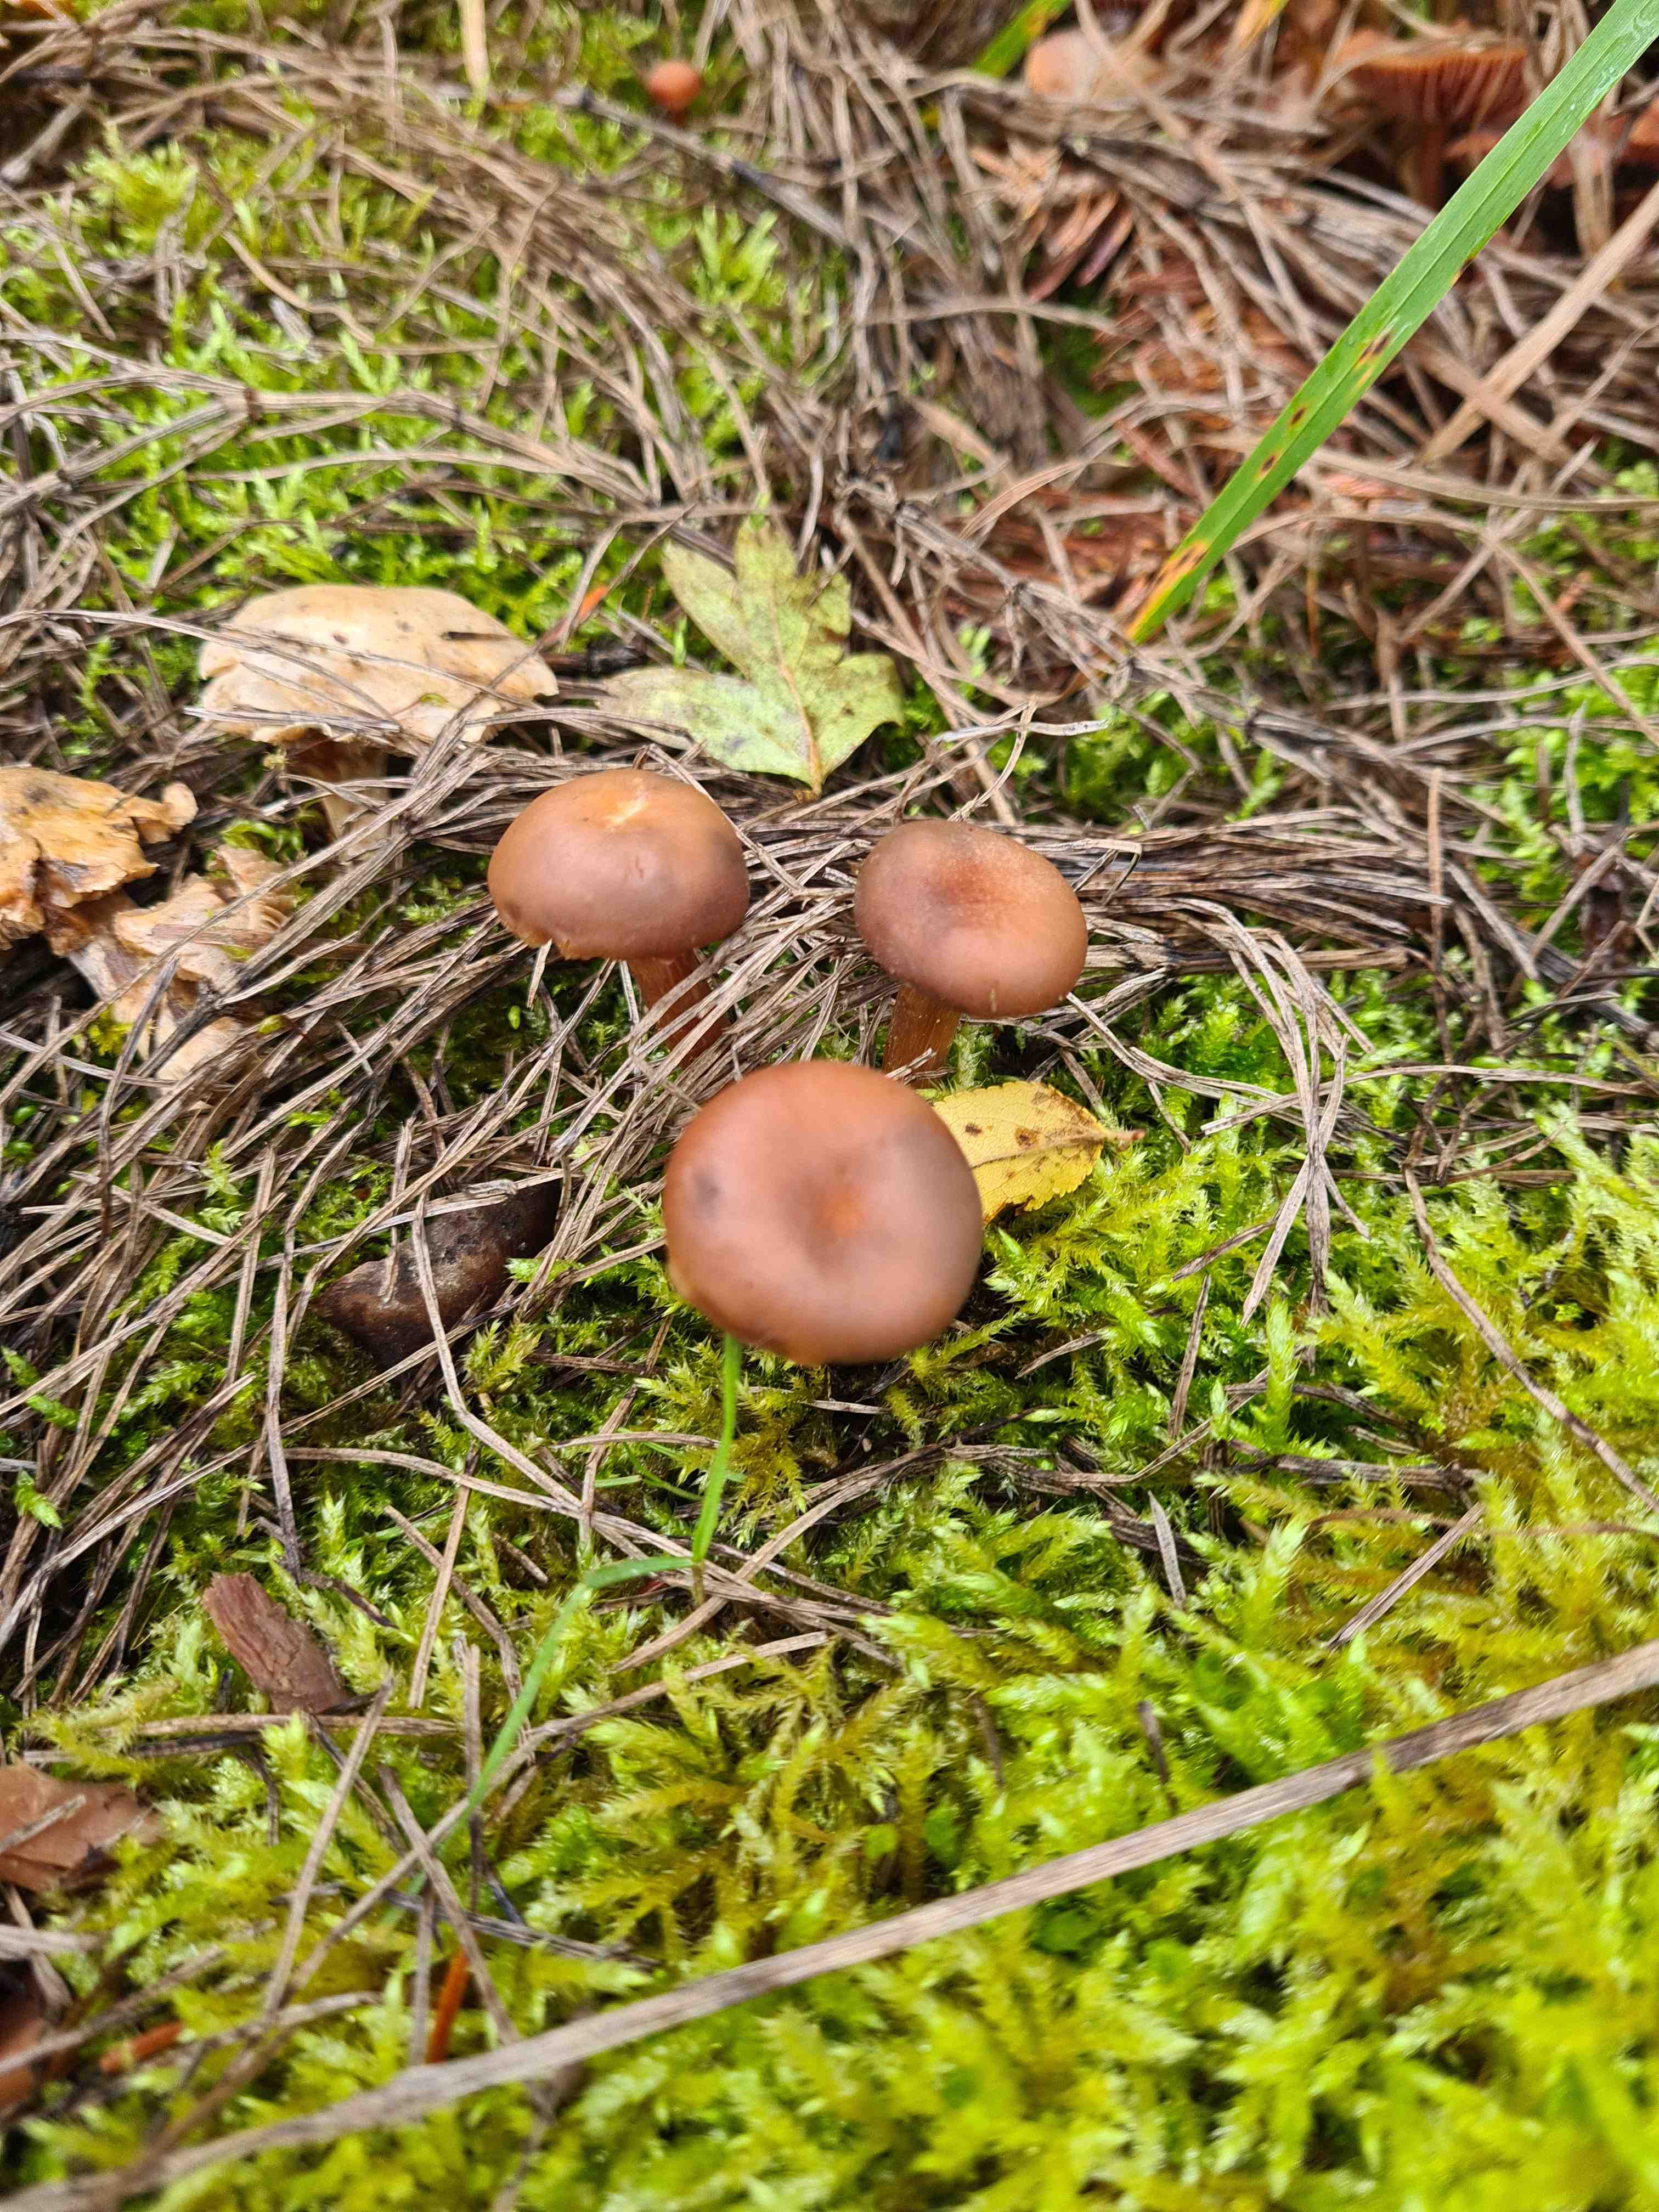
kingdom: Fungi
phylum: Basidiomycota
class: Agaricomycetes
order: Agaricales
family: Hydnangiaceae
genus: Laccaria
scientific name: Laccaria
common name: ametysthat
